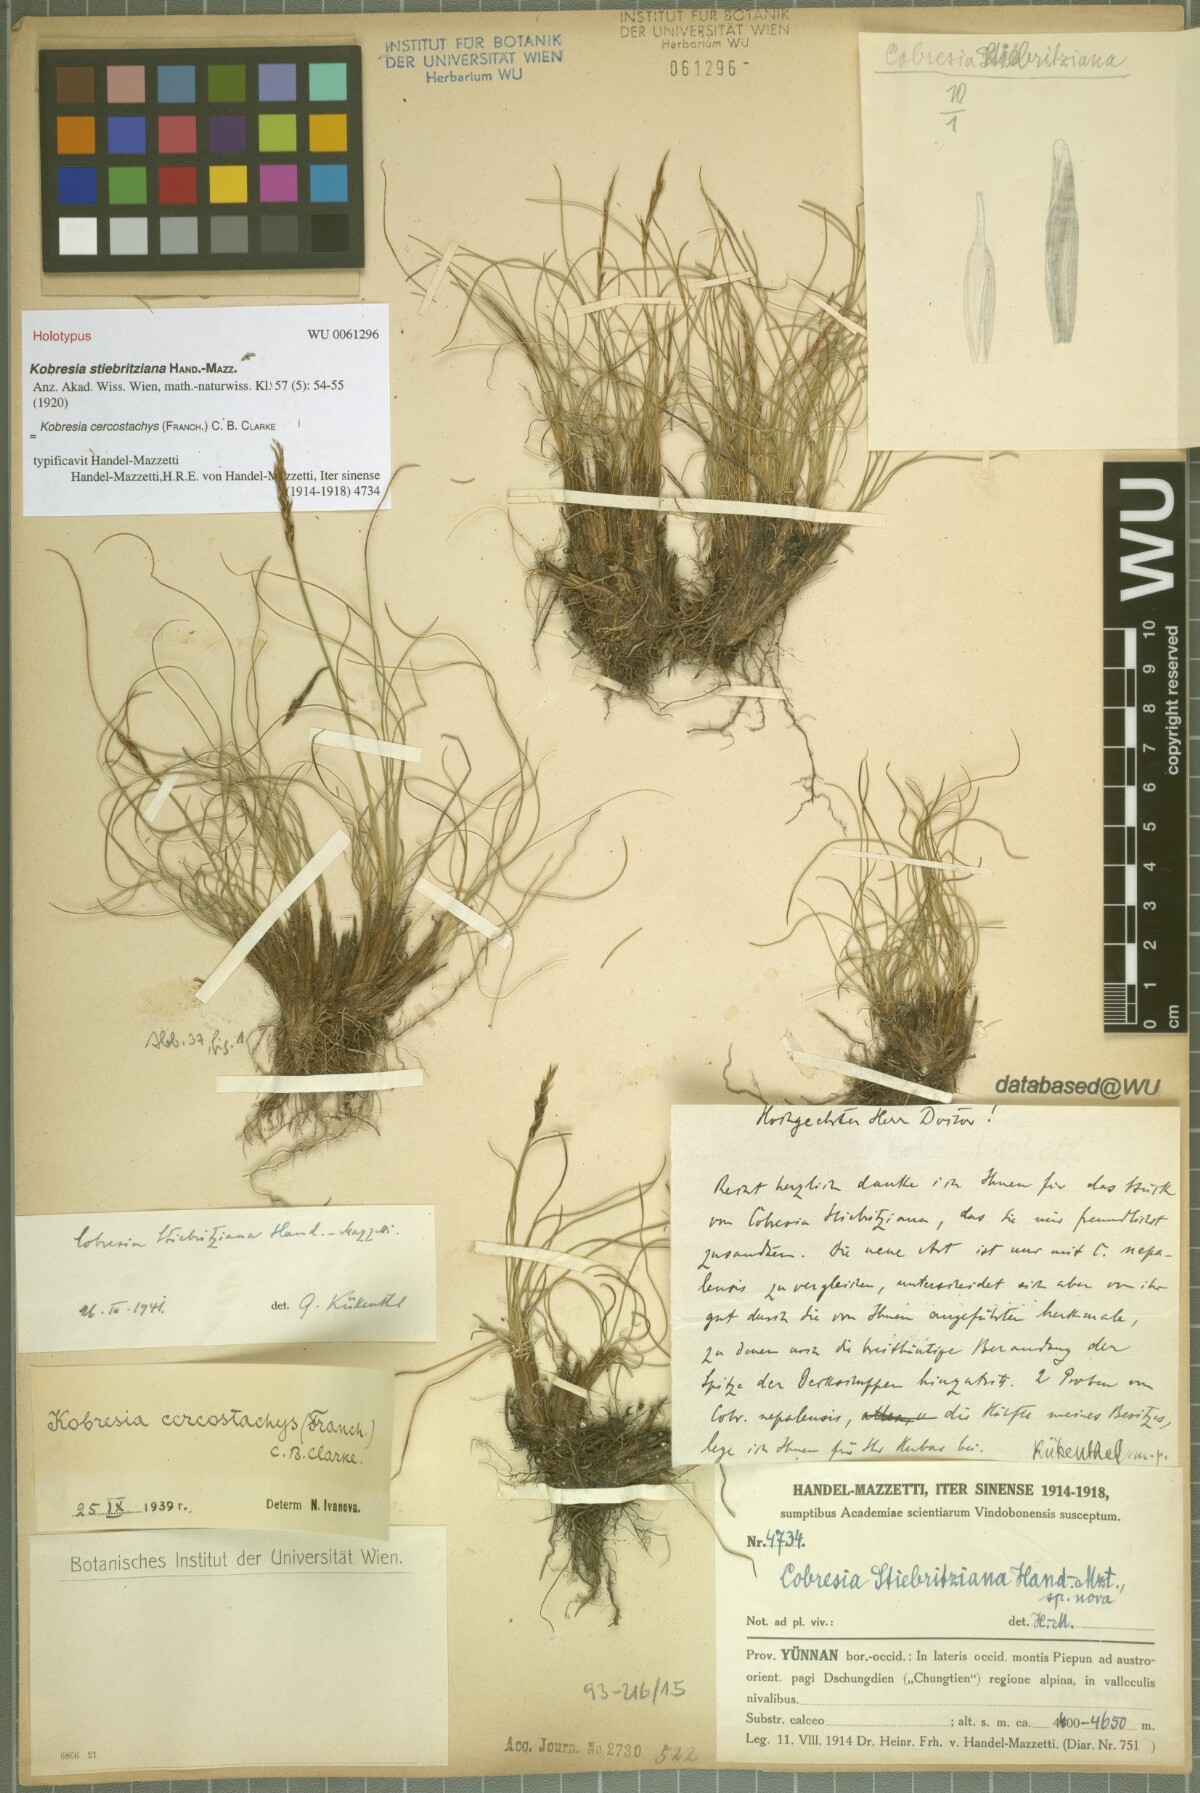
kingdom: Plantae
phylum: Tracheophyta
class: Liliopsida
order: Poales
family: Cyperaceae
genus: Carex
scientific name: Carex cercostachys
